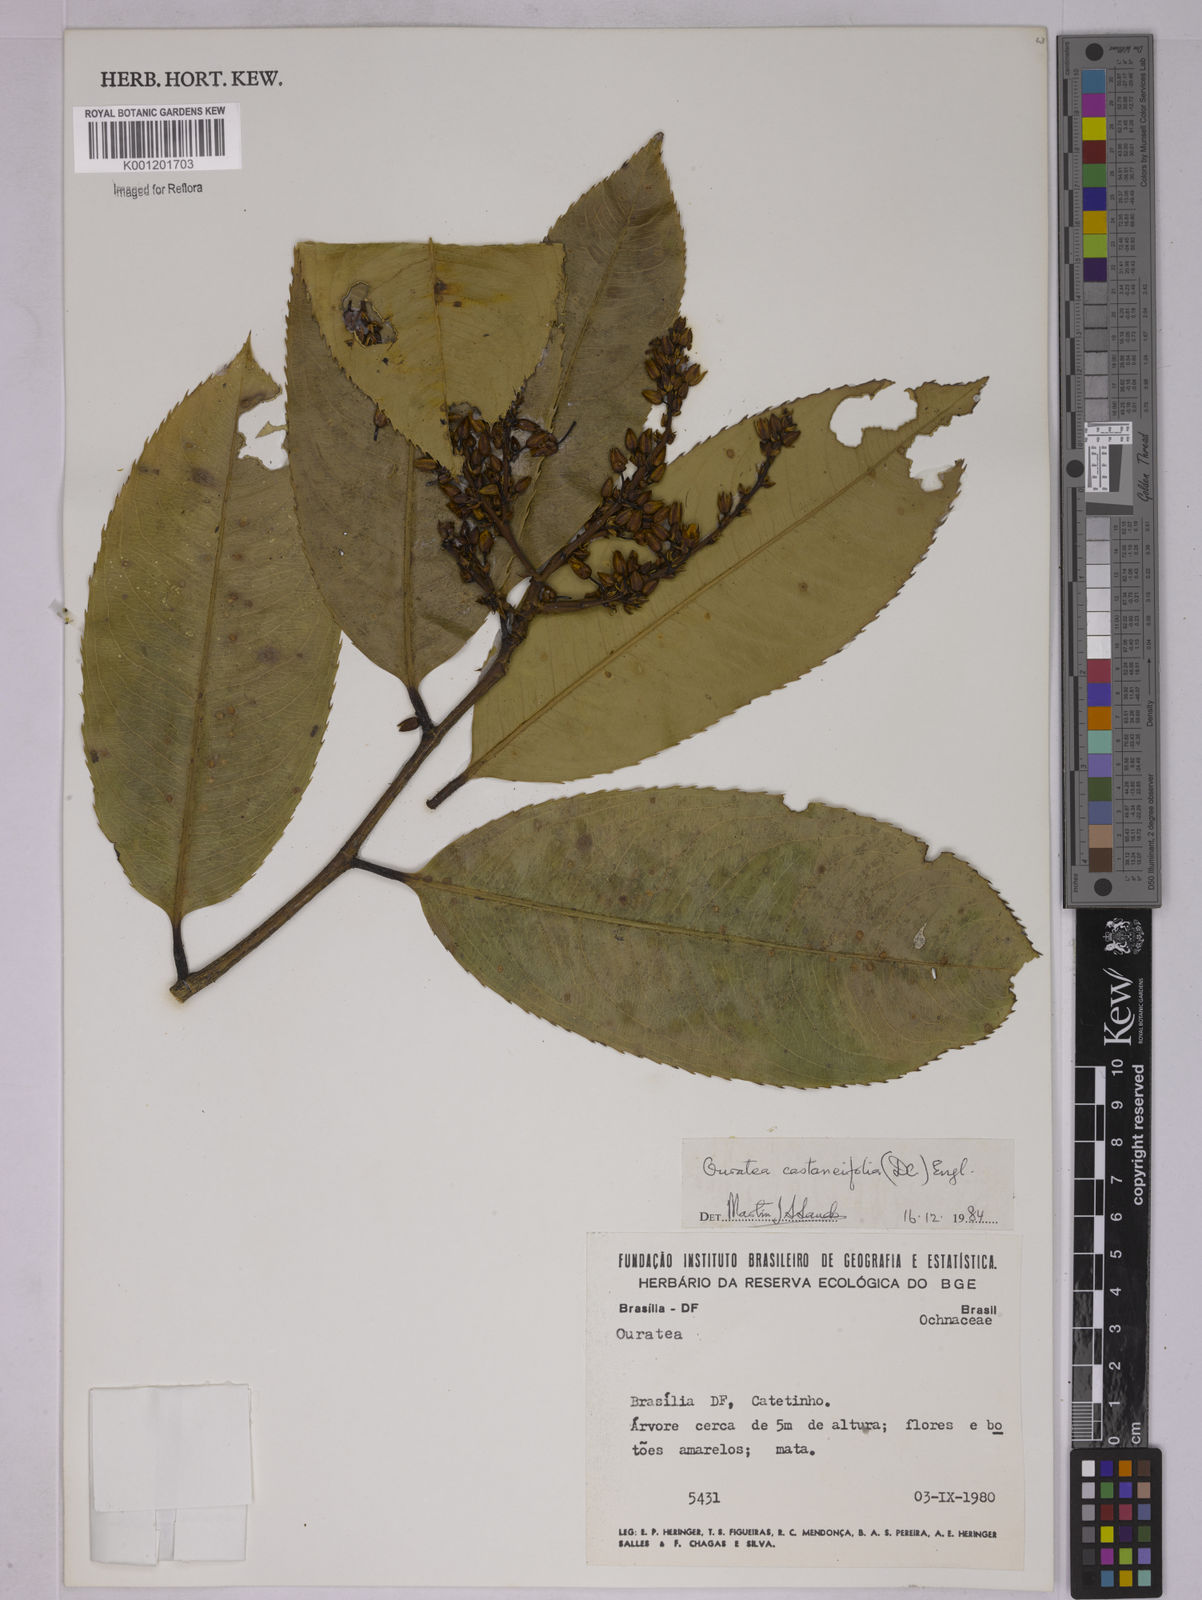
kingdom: Plantae
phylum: Tracheophyta
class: Magnoliopsida
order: Malpighiales
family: Ochnaceae
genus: Ouratea
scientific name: Ouratea castaneifolia
